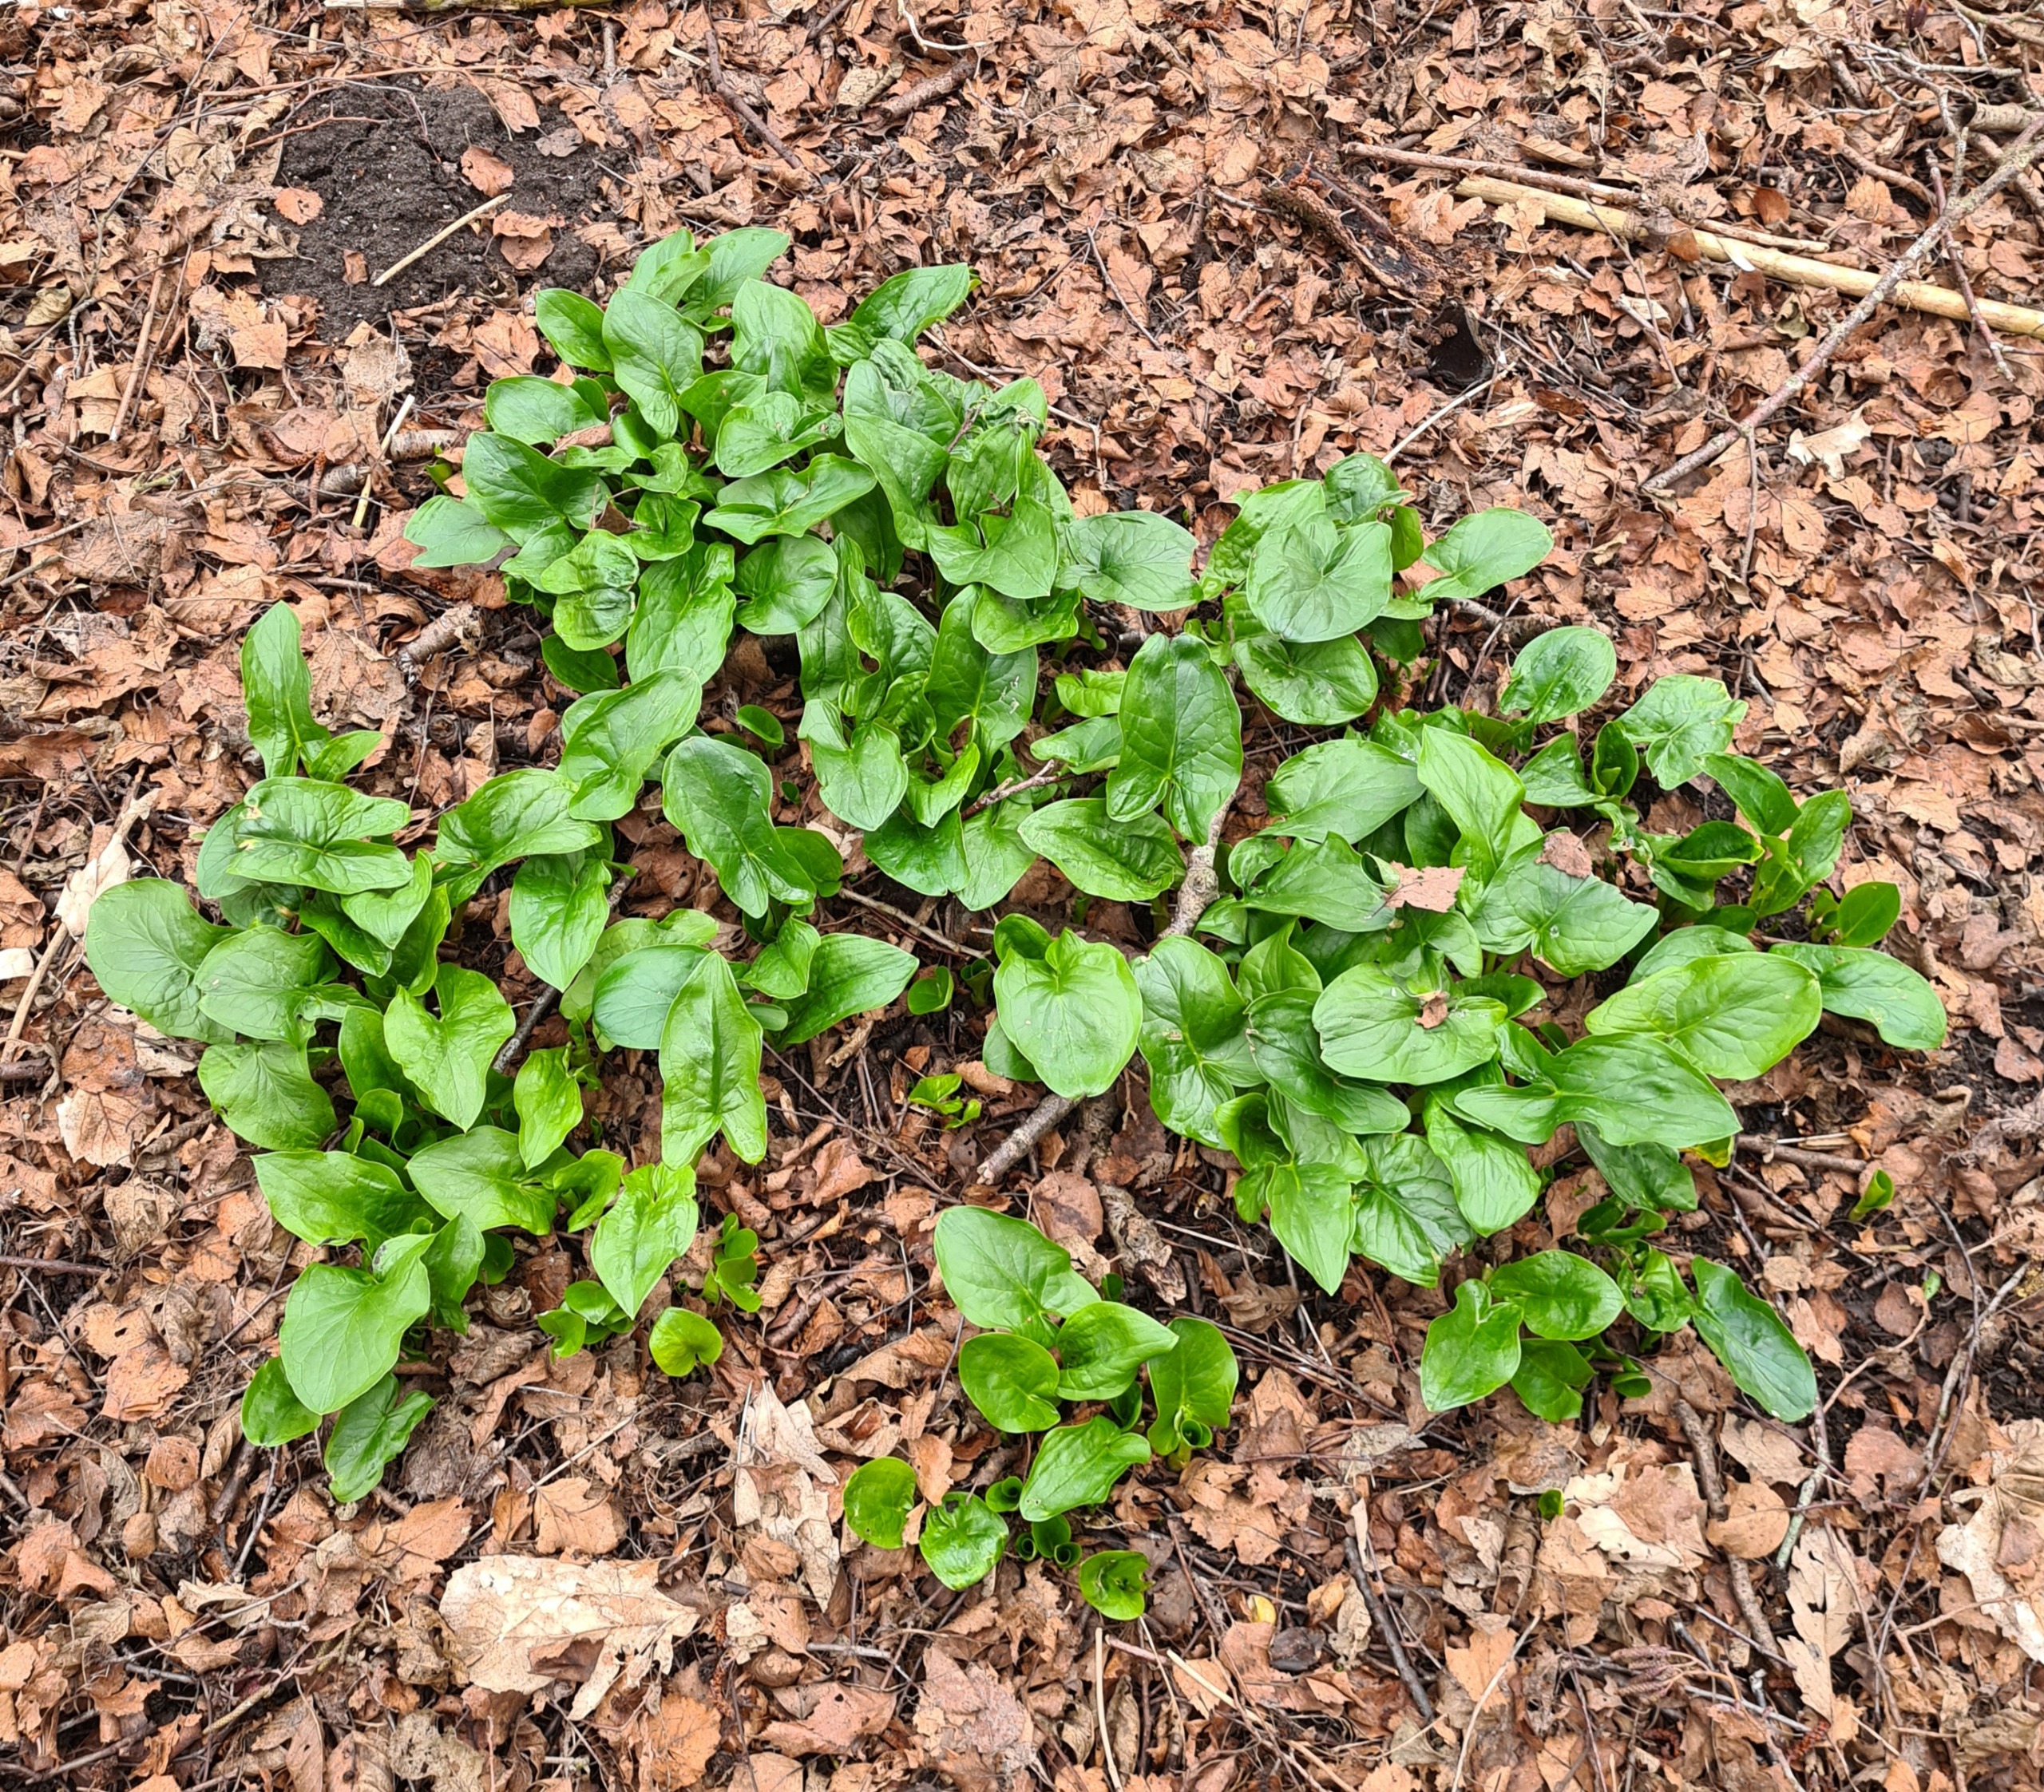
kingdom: Plantae
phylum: Tracheophyta
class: Liliopsida
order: Alismatales
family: Araceae
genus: Arum
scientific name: Arum
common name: Arumslægten
